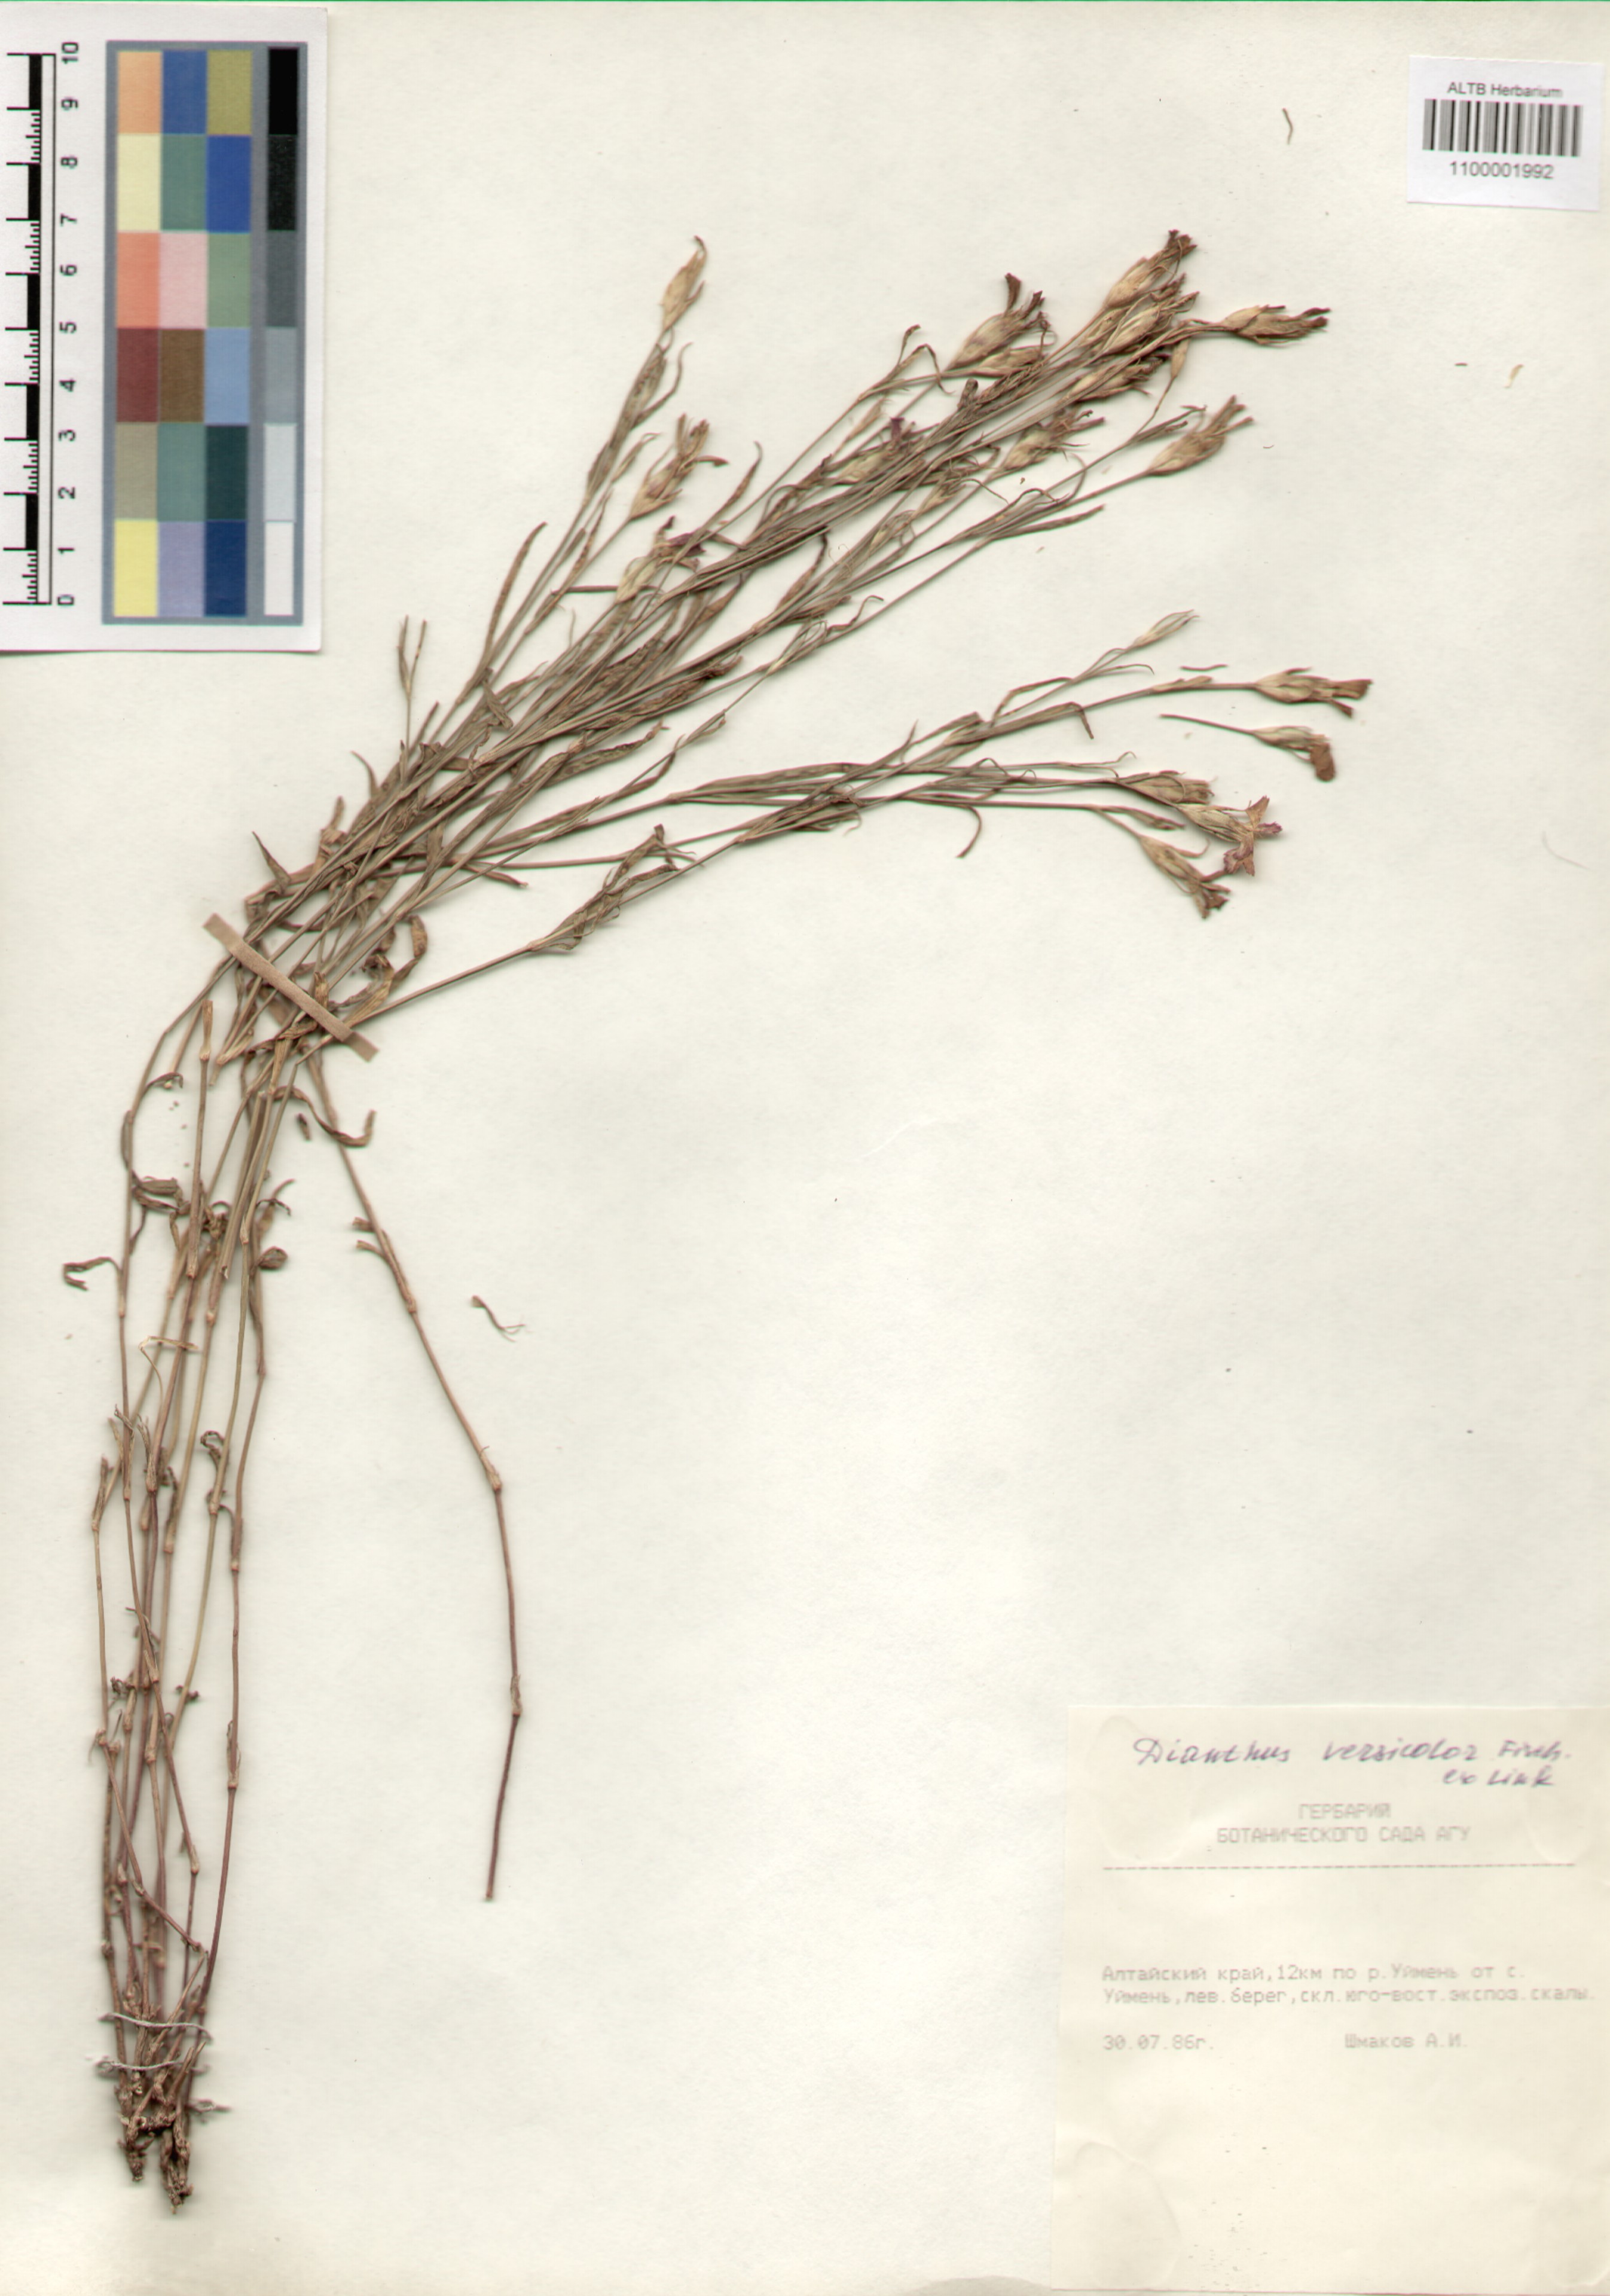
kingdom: Plantae
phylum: Tracheophyta
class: Magnoliopsida
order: Caryophyllales
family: Caryophyllaceae
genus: Dianthus
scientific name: Dianthus chinensis
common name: Rainbow pink
